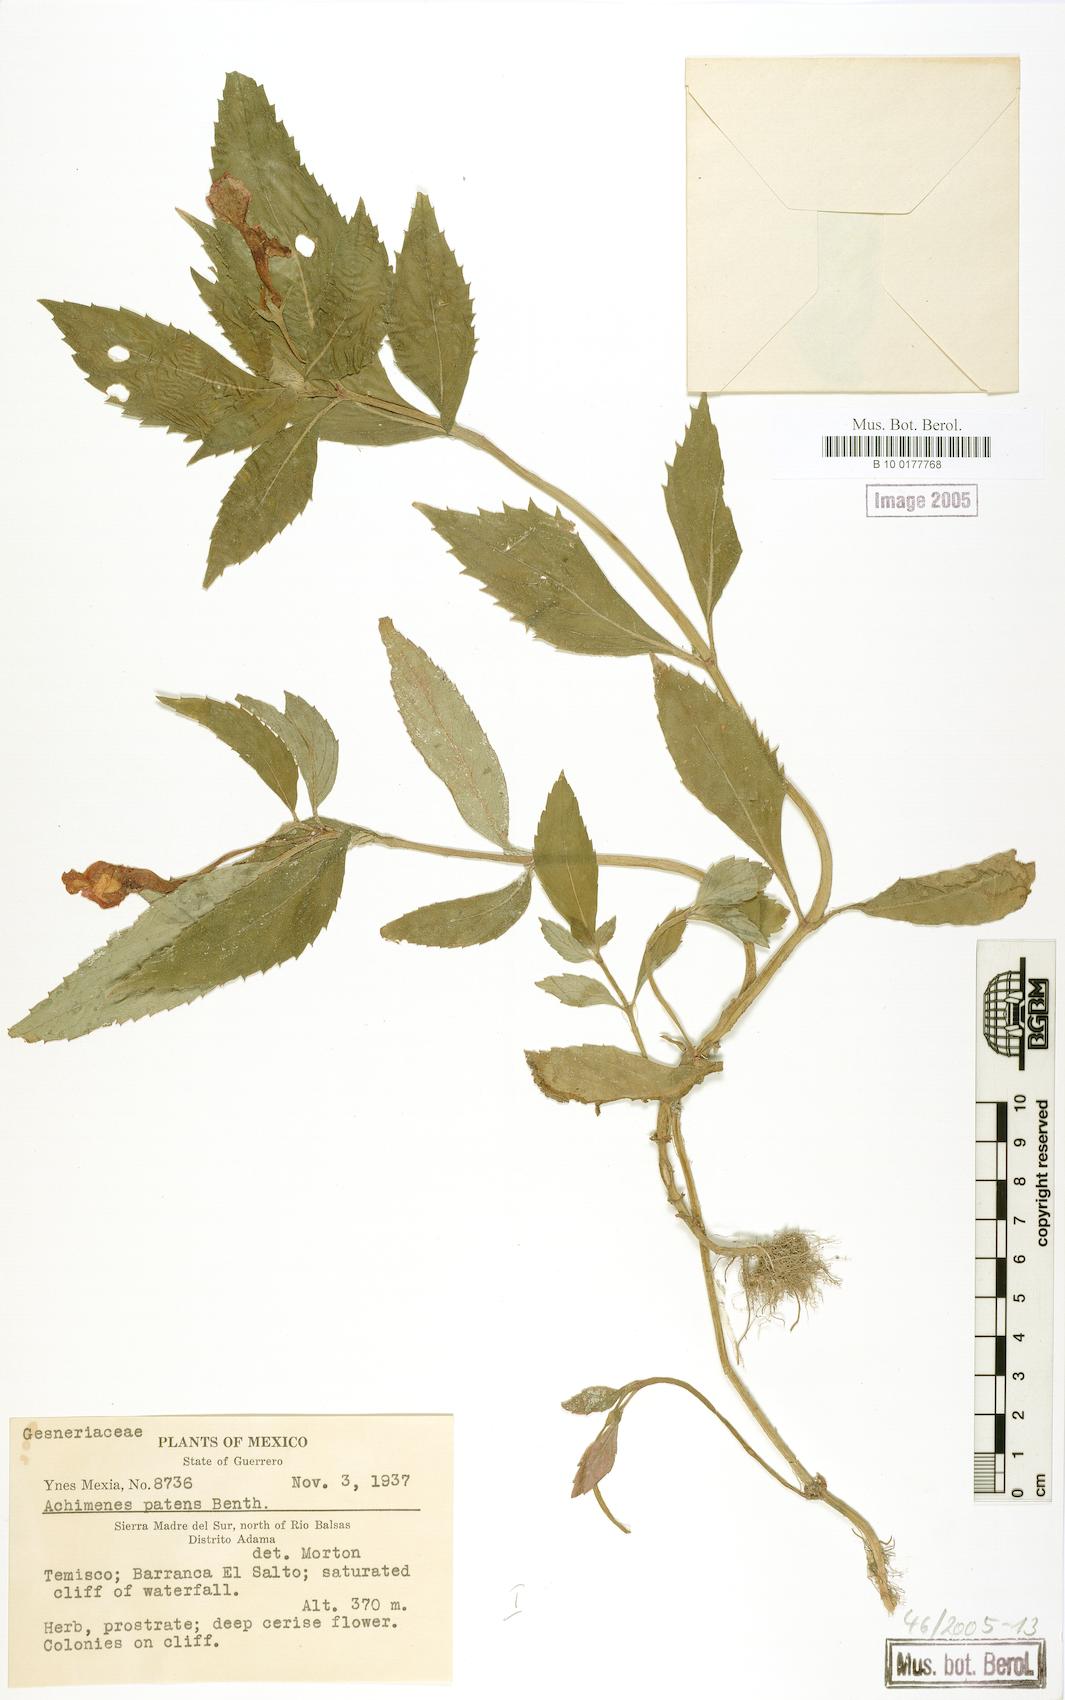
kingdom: Plantae
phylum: Tracheophyta
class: Magnoliopsida
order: Lamiales
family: Gesneriaceae
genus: Achimenes
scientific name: Achimenes patens
